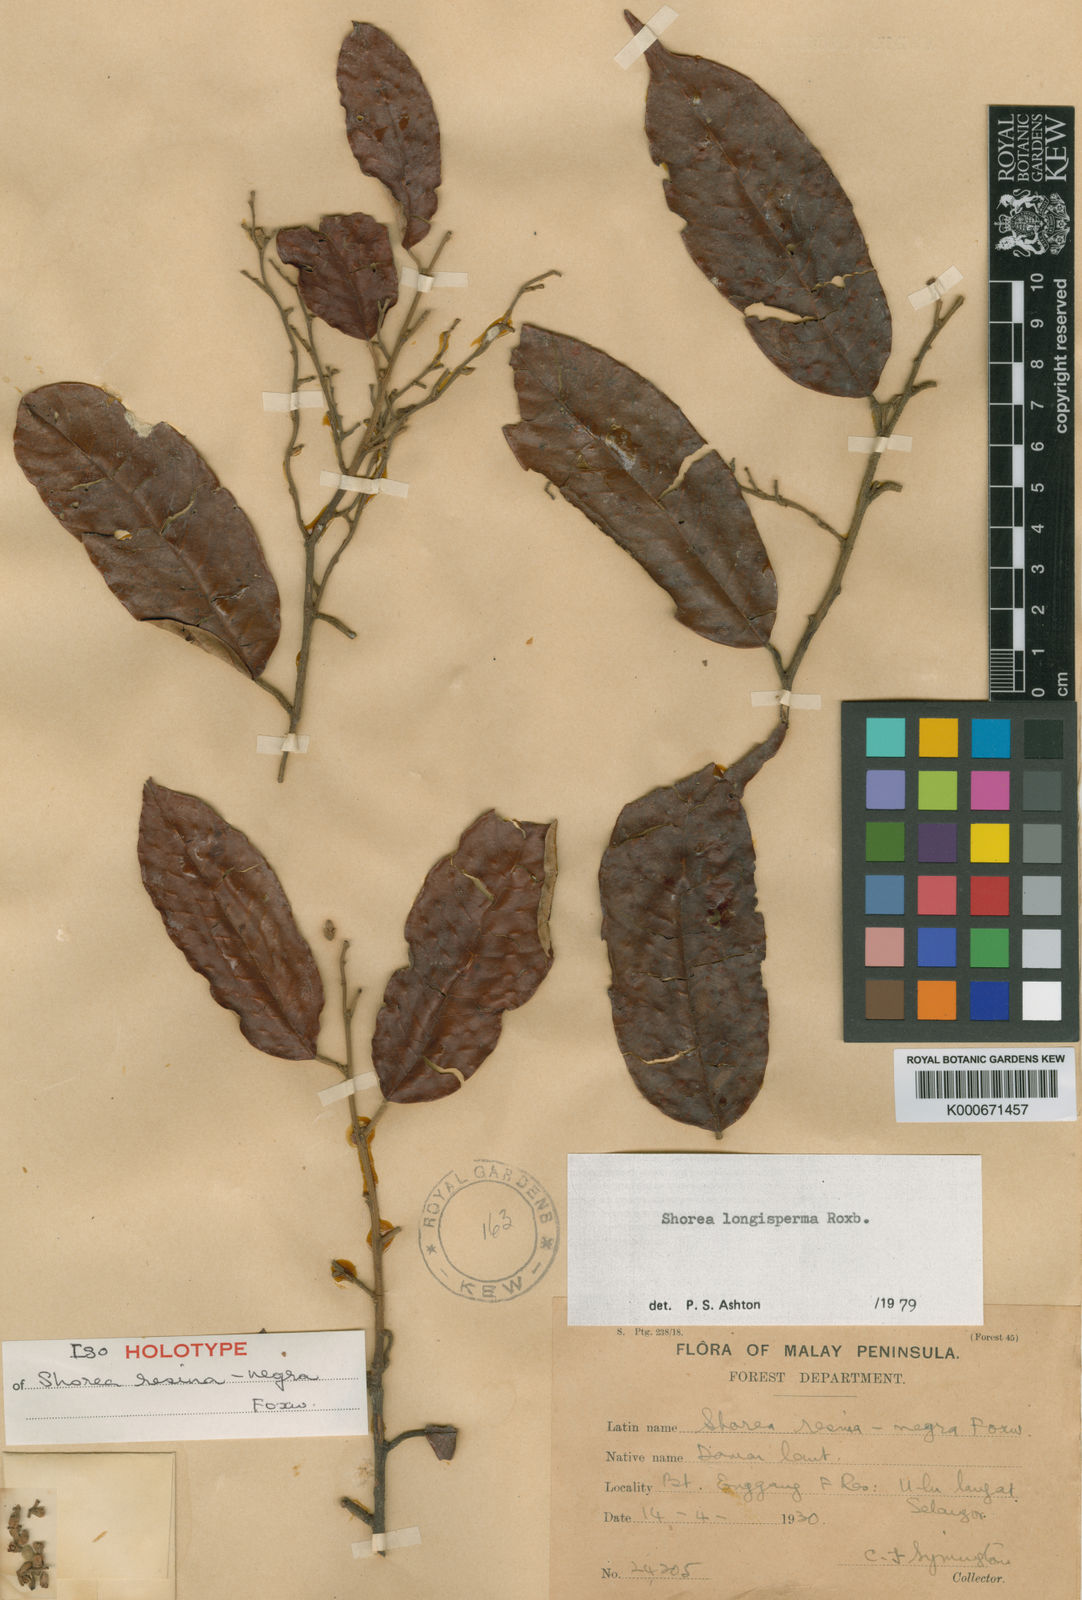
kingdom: Plantae
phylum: Tracheophyta
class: Magnoliopsida
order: Malvales
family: Dipterocarpaceae
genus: Shorea
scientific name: Shorea longisperma
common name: Yellow meranti
